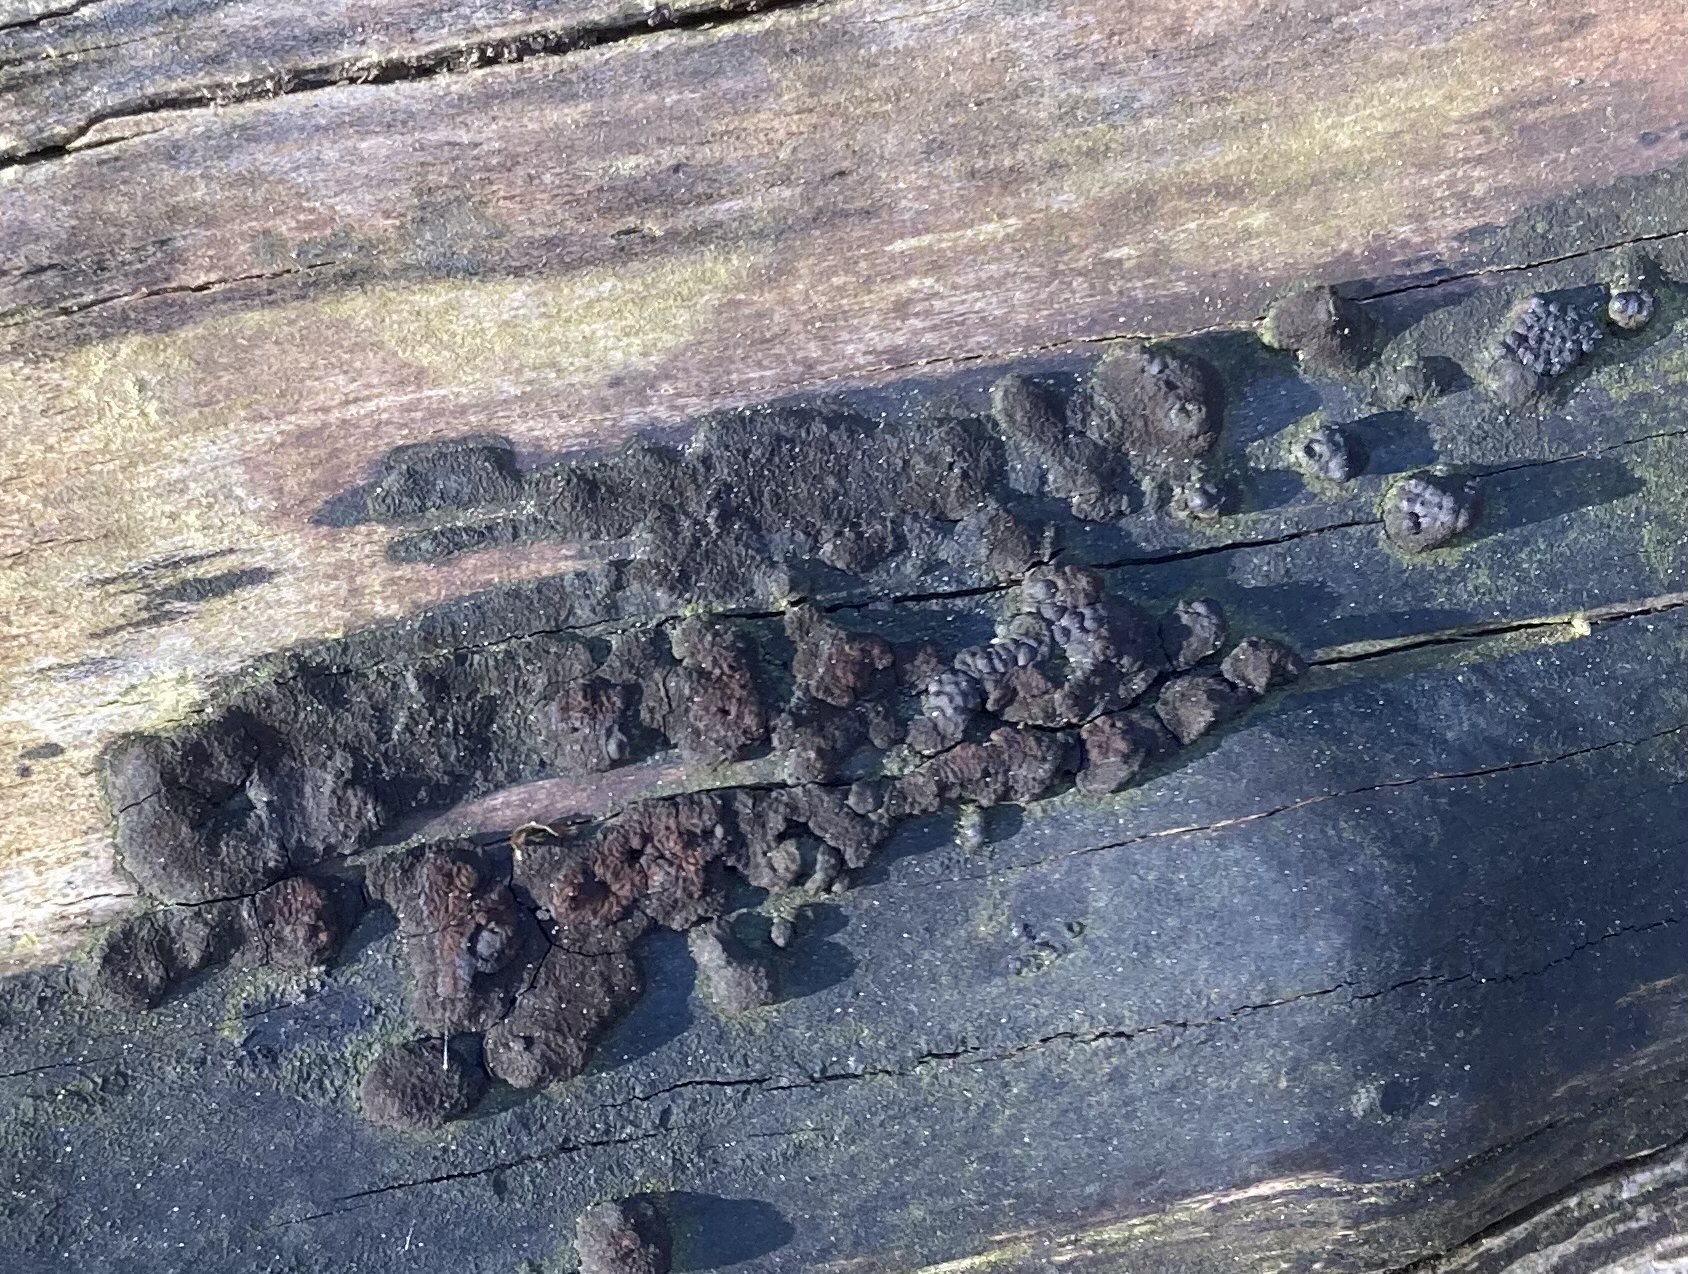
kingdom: Fungi
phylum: Ascomycota
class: Sordariomycetes
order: Xylariales
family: Hypoxylaceae
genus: Jackrogersella
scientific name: Jackrogersella multiformis
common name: foranderlig kulbær
